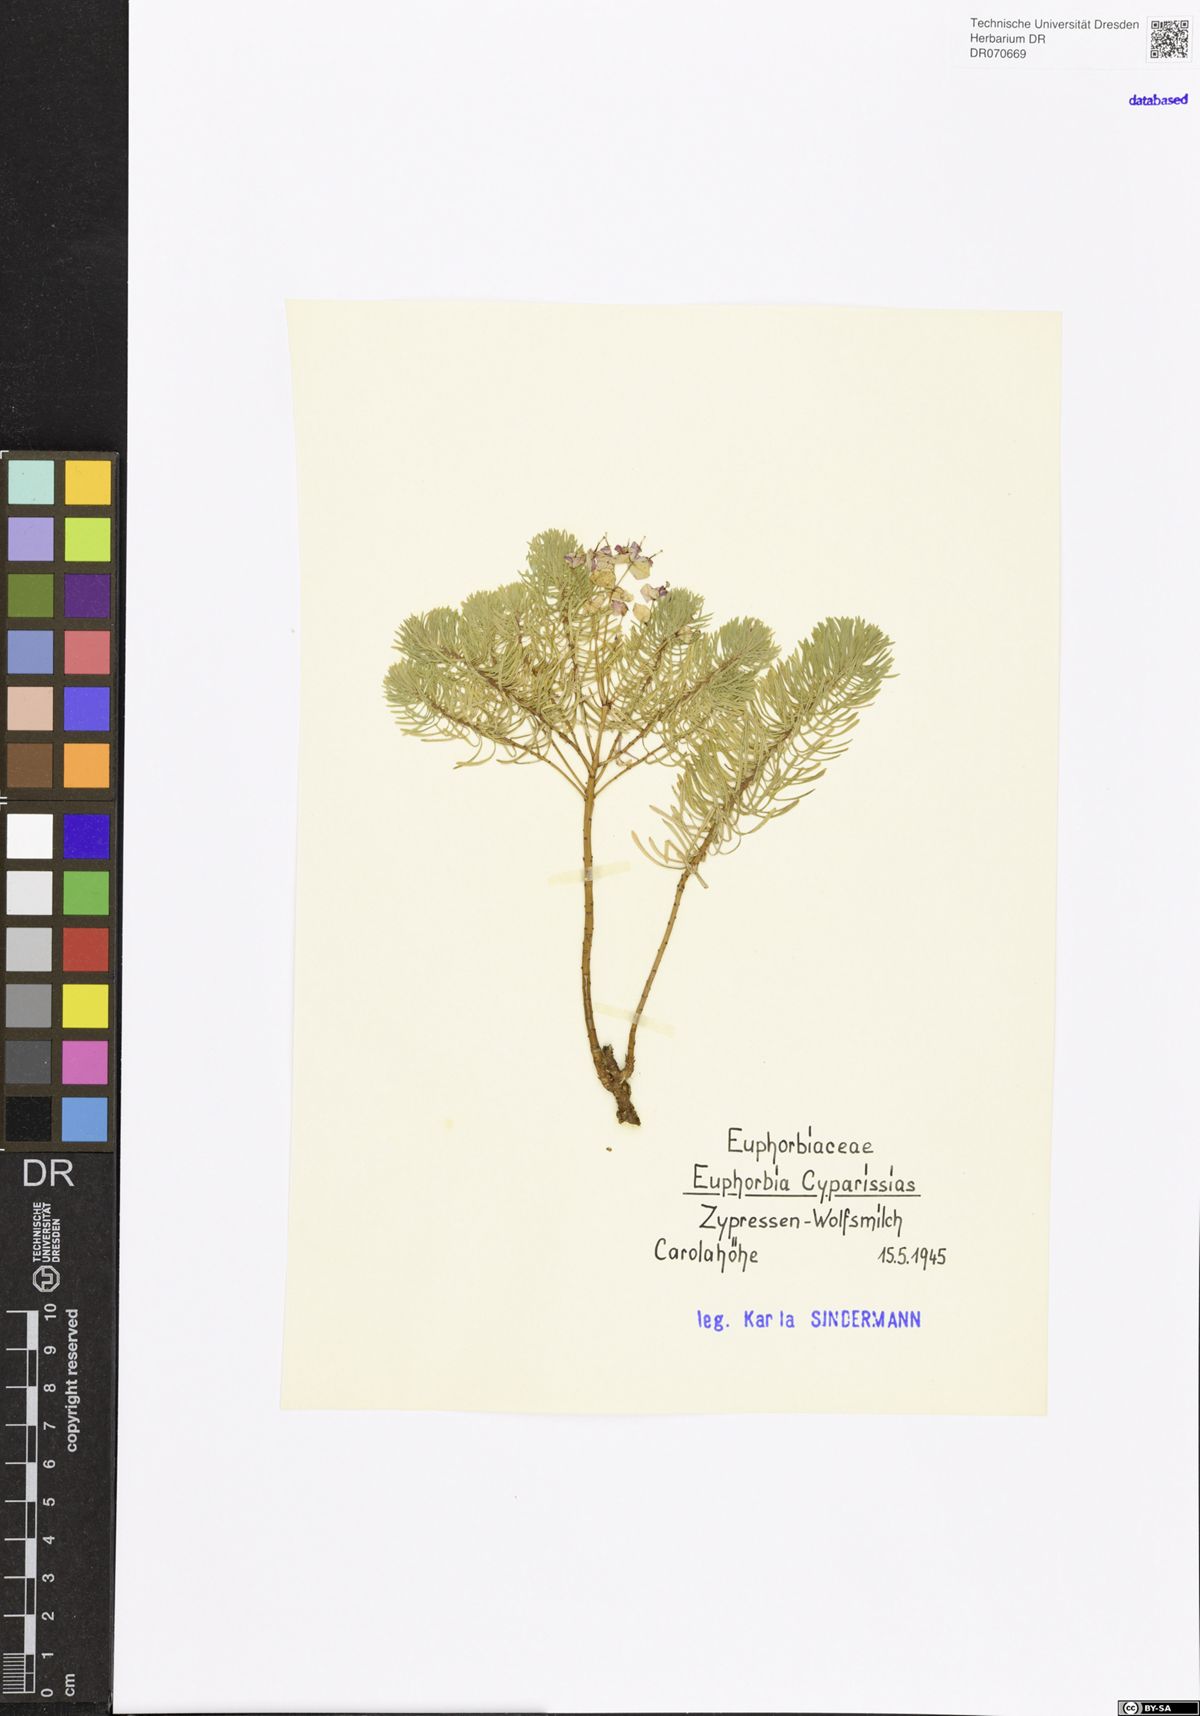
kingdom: Plantae
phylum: Tracheophyta
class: Magnoliopsida
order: Malpighiales
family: Euphorbiaceae
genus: Euphorbia
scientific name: Euphorbia cyparissias
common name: Cypress spurge
